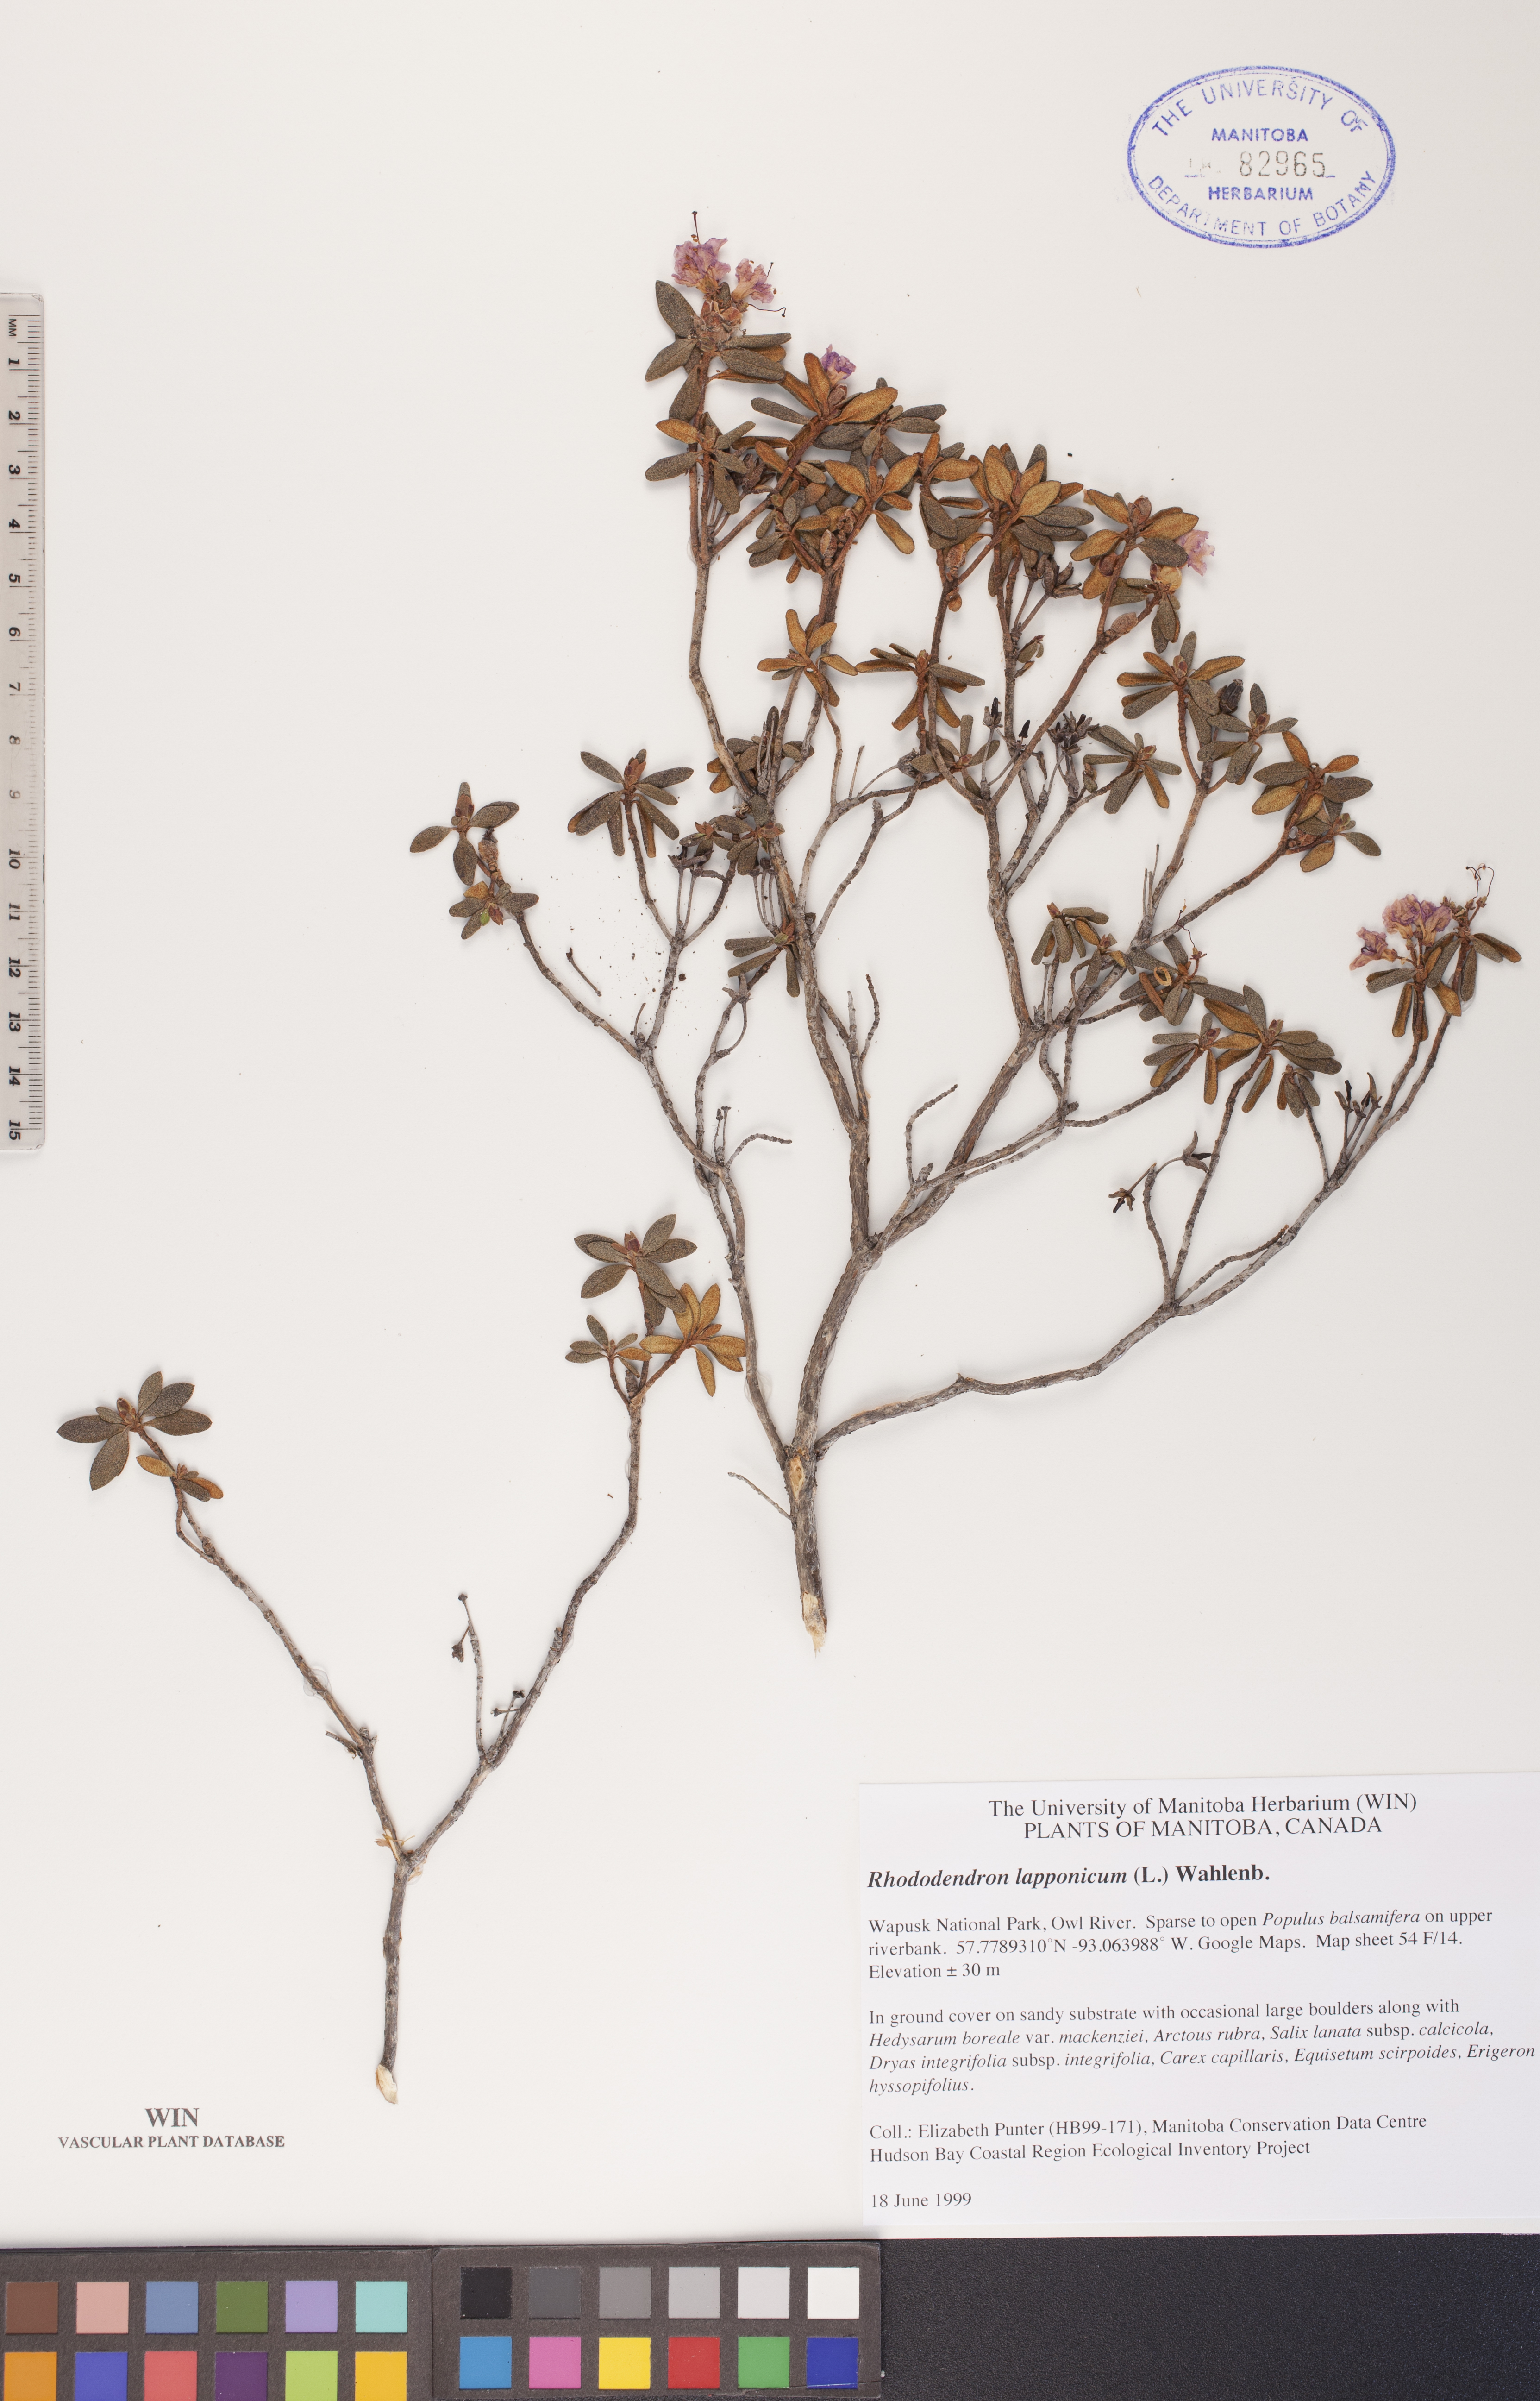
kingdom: Plantae
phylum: Tracheophyta
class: Magnoliopsida
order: Ericales
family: Ericaceae
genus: Rhododendron
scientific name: Rhododendron lapponicum
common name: Lapland rhododendron
